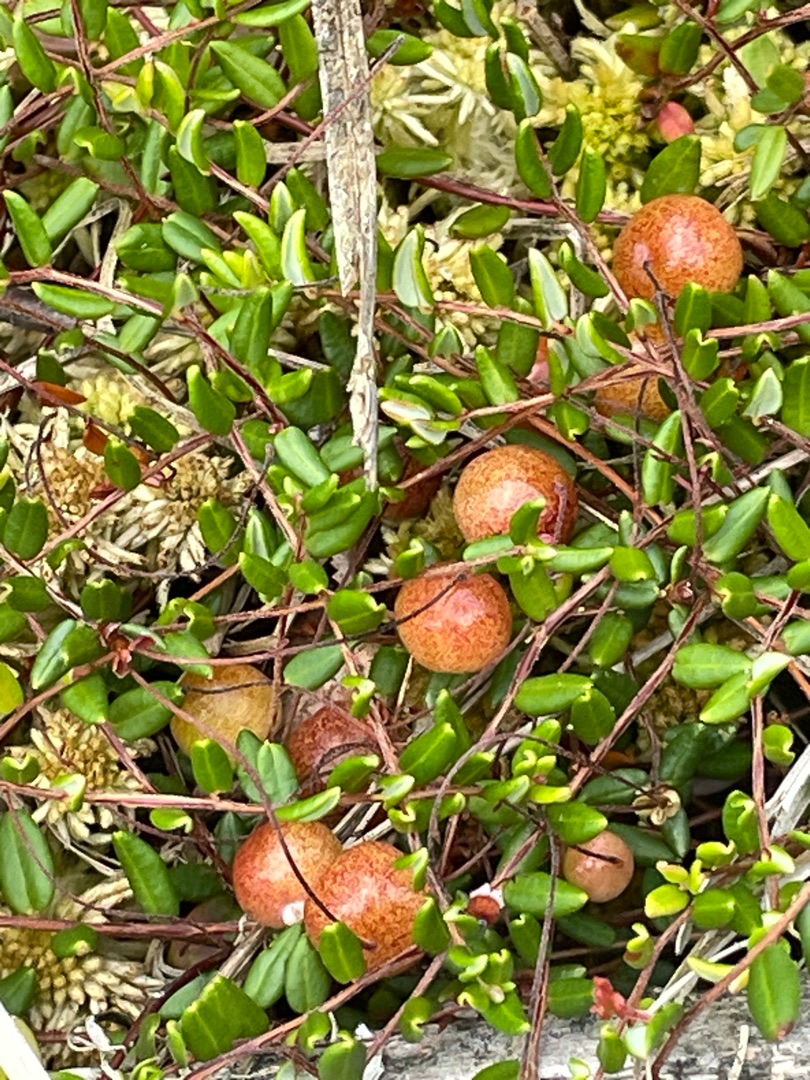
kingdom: Plantae
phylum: Tracheophyta
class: Magnoliopsida
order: Ericales
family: Ericaceae
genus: Vaccinium
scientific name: Vaccinium oxycoccos
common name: Tranebær
